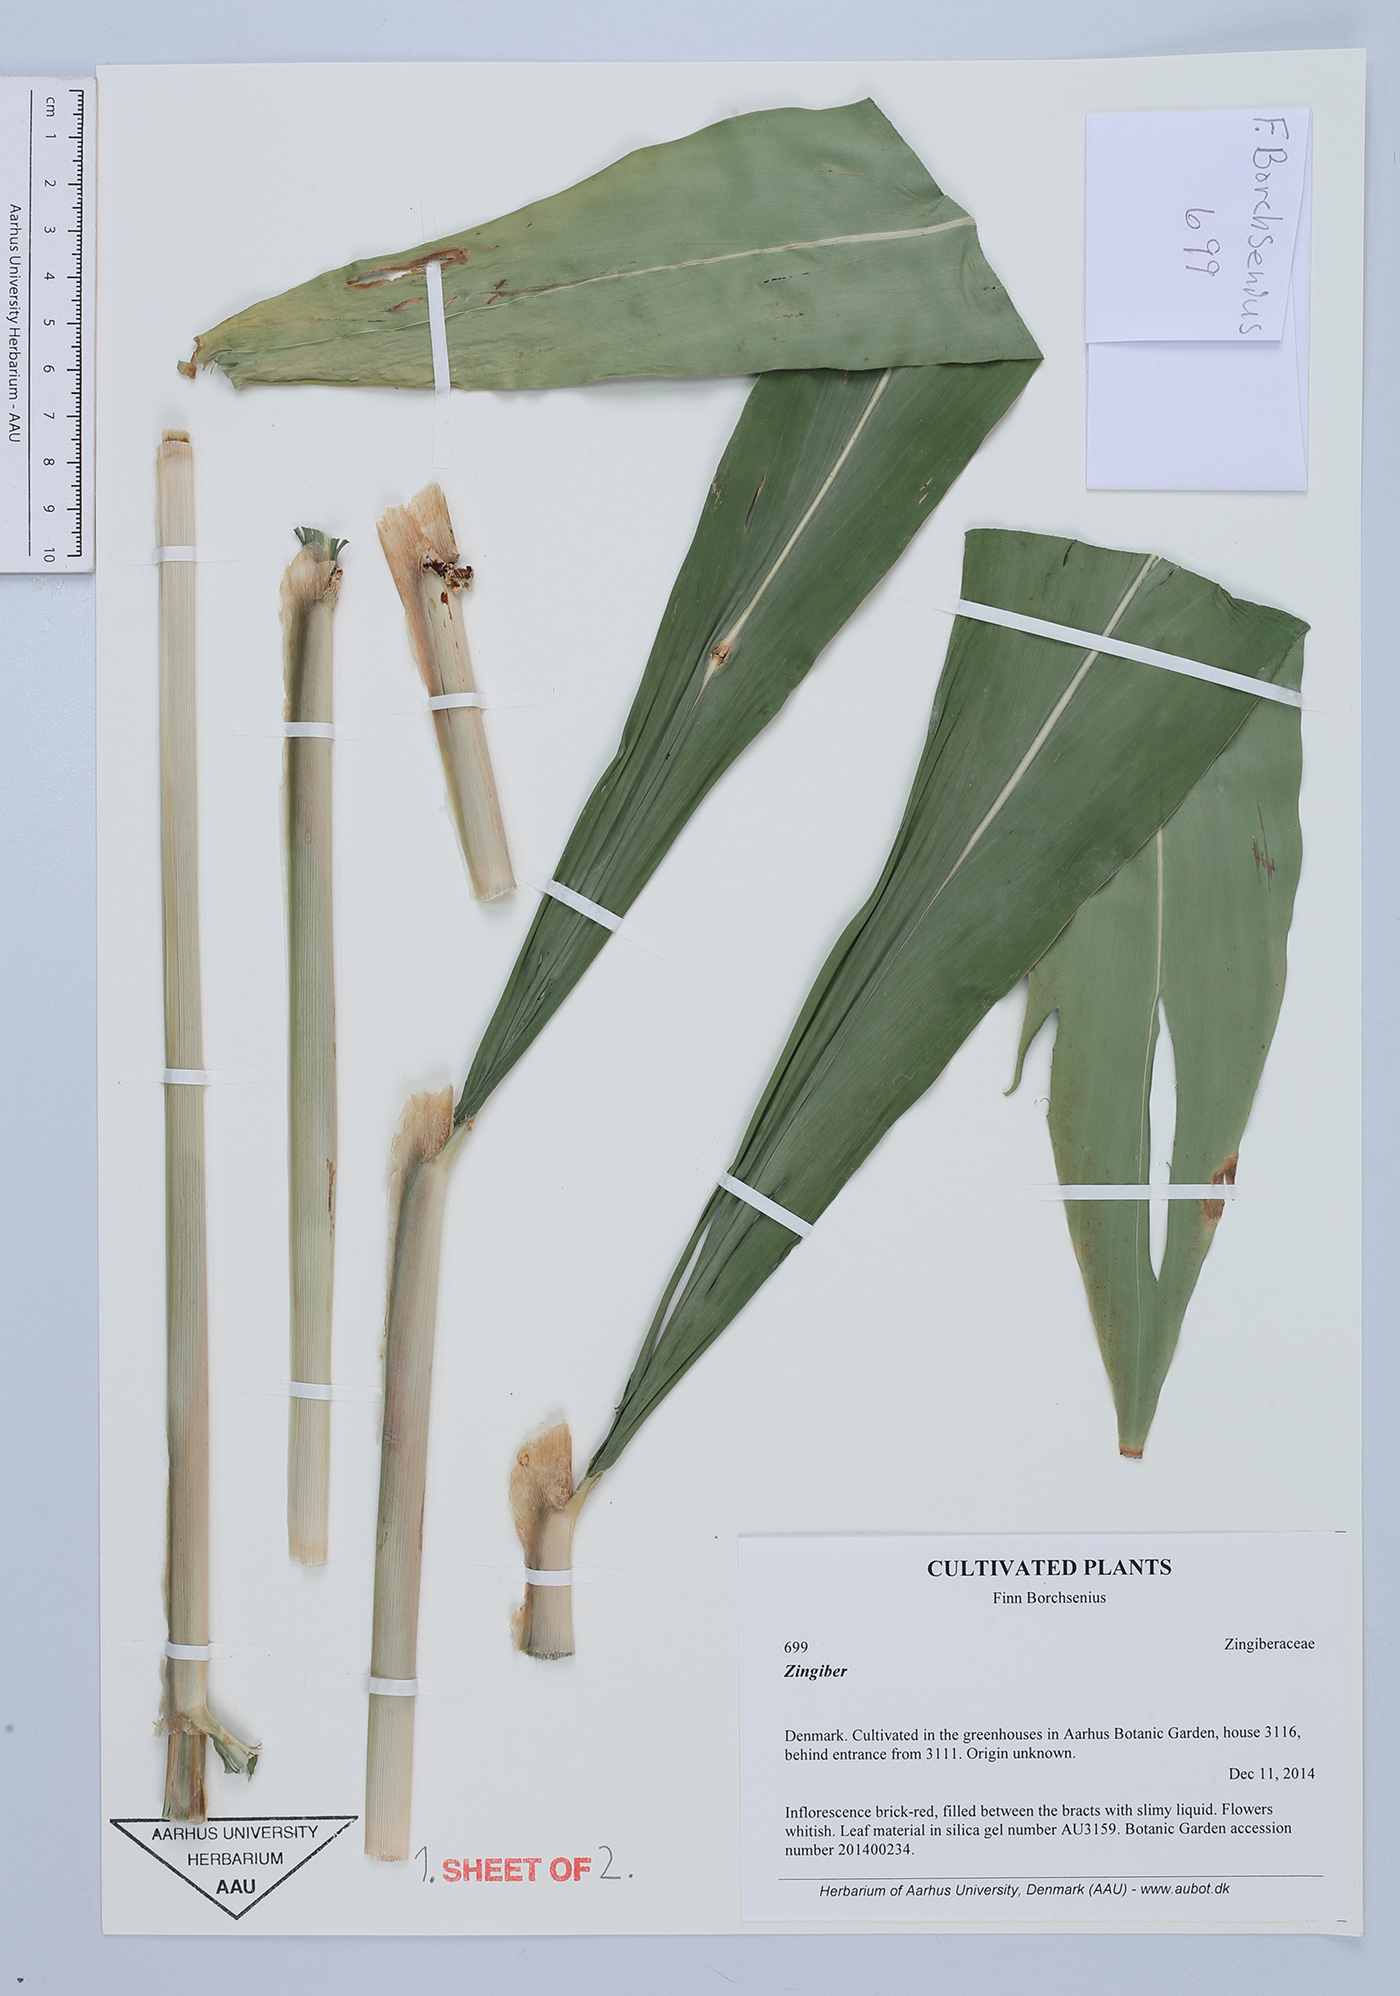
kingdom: Plantae
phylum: Tracheophyta
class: Liliopsida
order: Zingiberales
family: Zingiberaceae
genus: Zingiber
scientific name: Zingiber
